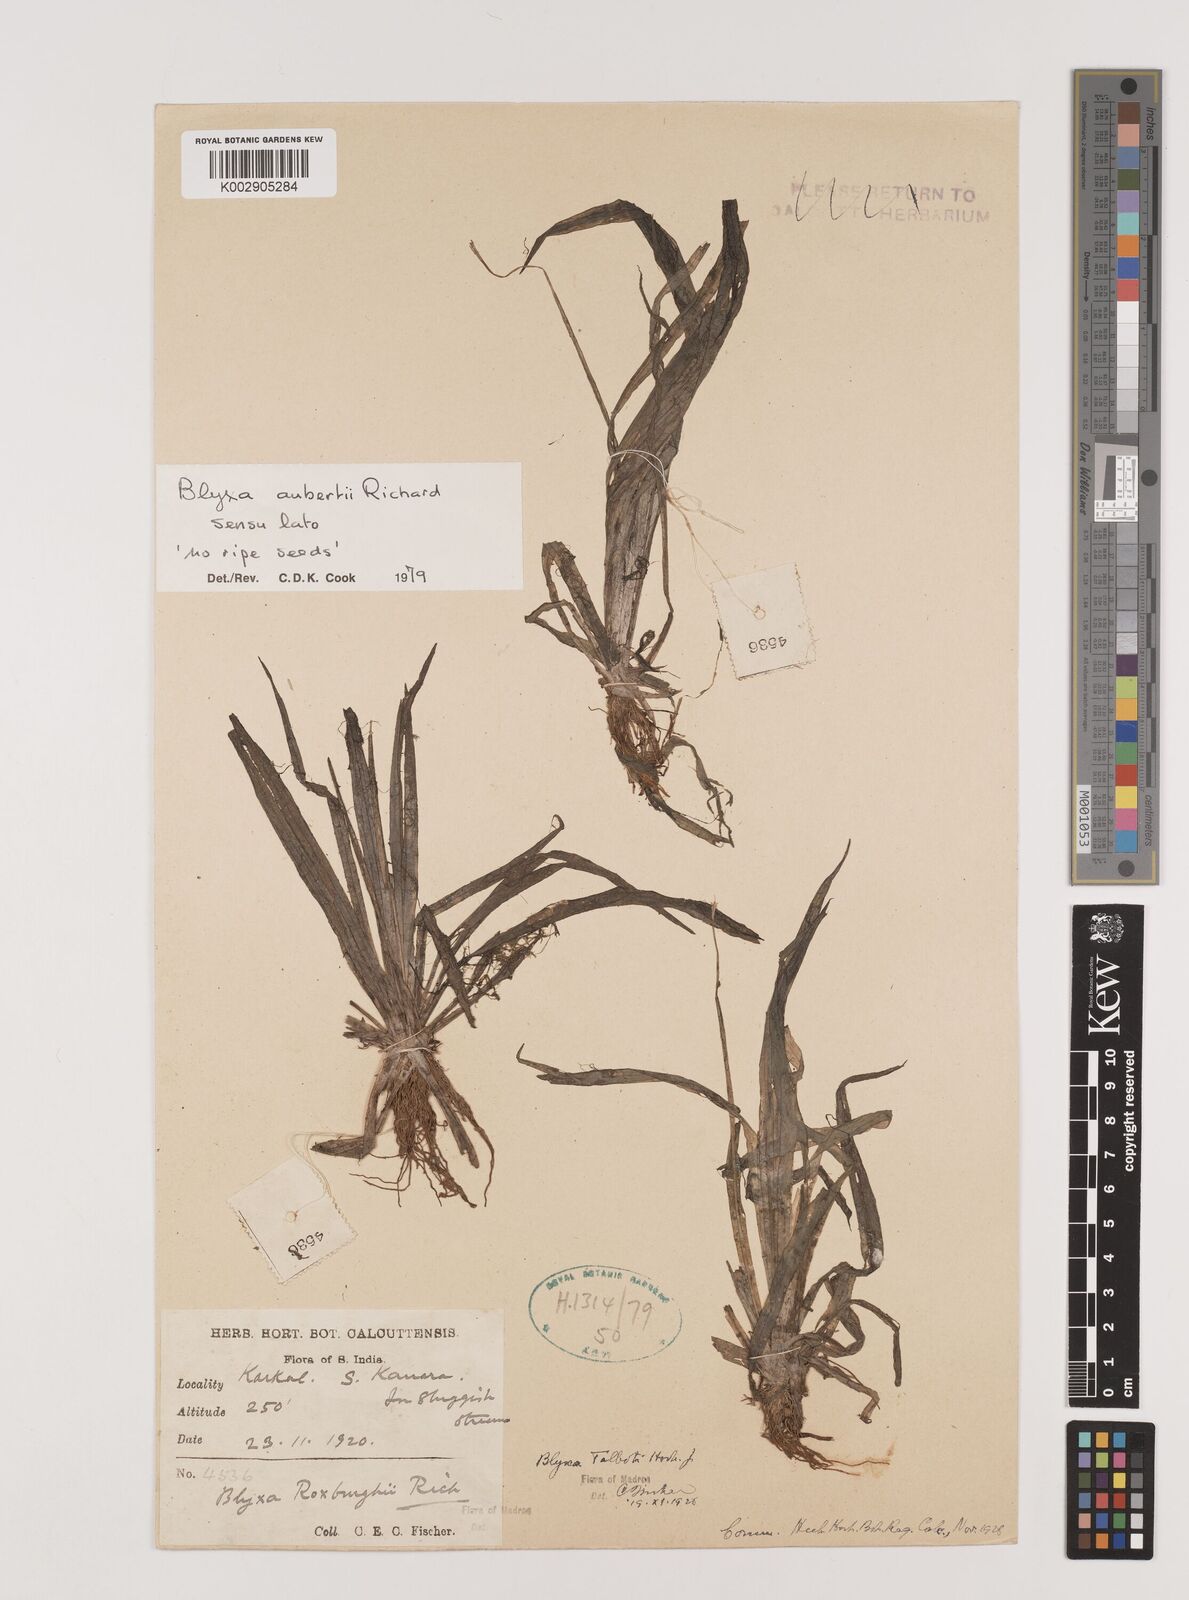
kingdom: Plantae
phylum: Tracheophyta
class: Liliopsida
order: Alismatales
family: Hydrocharitaceae
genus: Blyxa
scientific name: Blyxa aubertii
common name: Roundfruit blyxa
